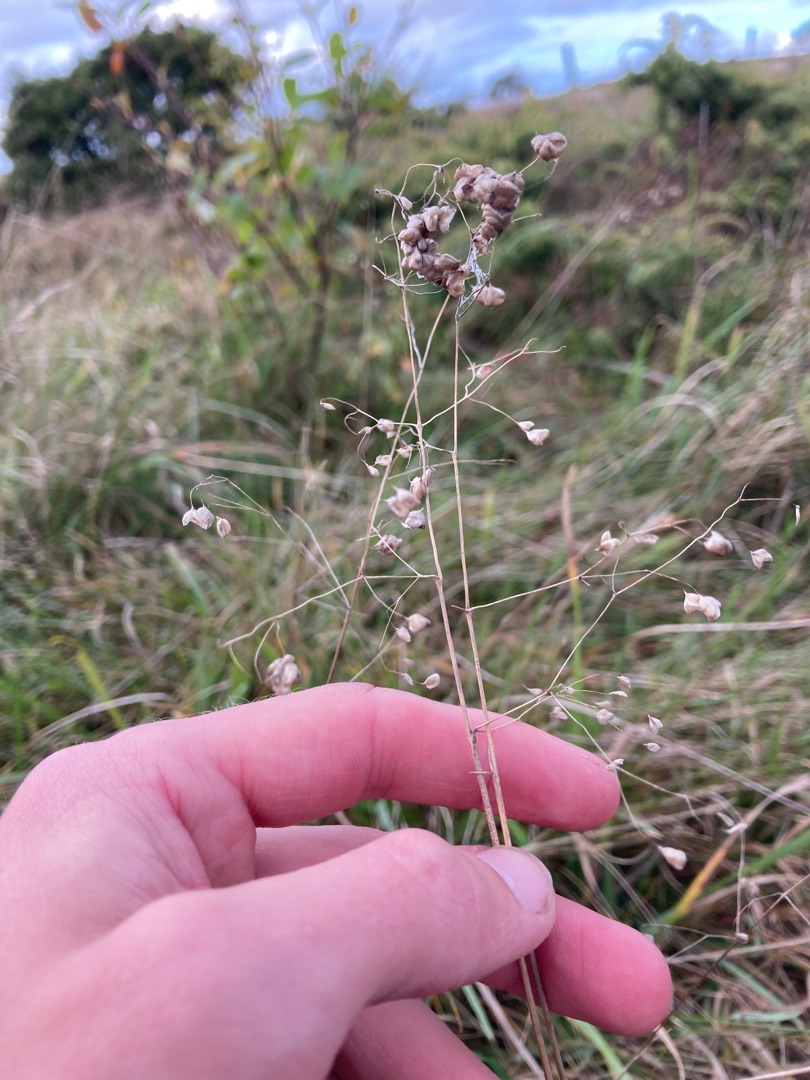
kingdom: Plantae
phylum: Tracheophyta
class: Liliopsida
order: Poales
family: Poaceae
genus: Briza
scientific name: Briza media
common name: Hjertegræs
